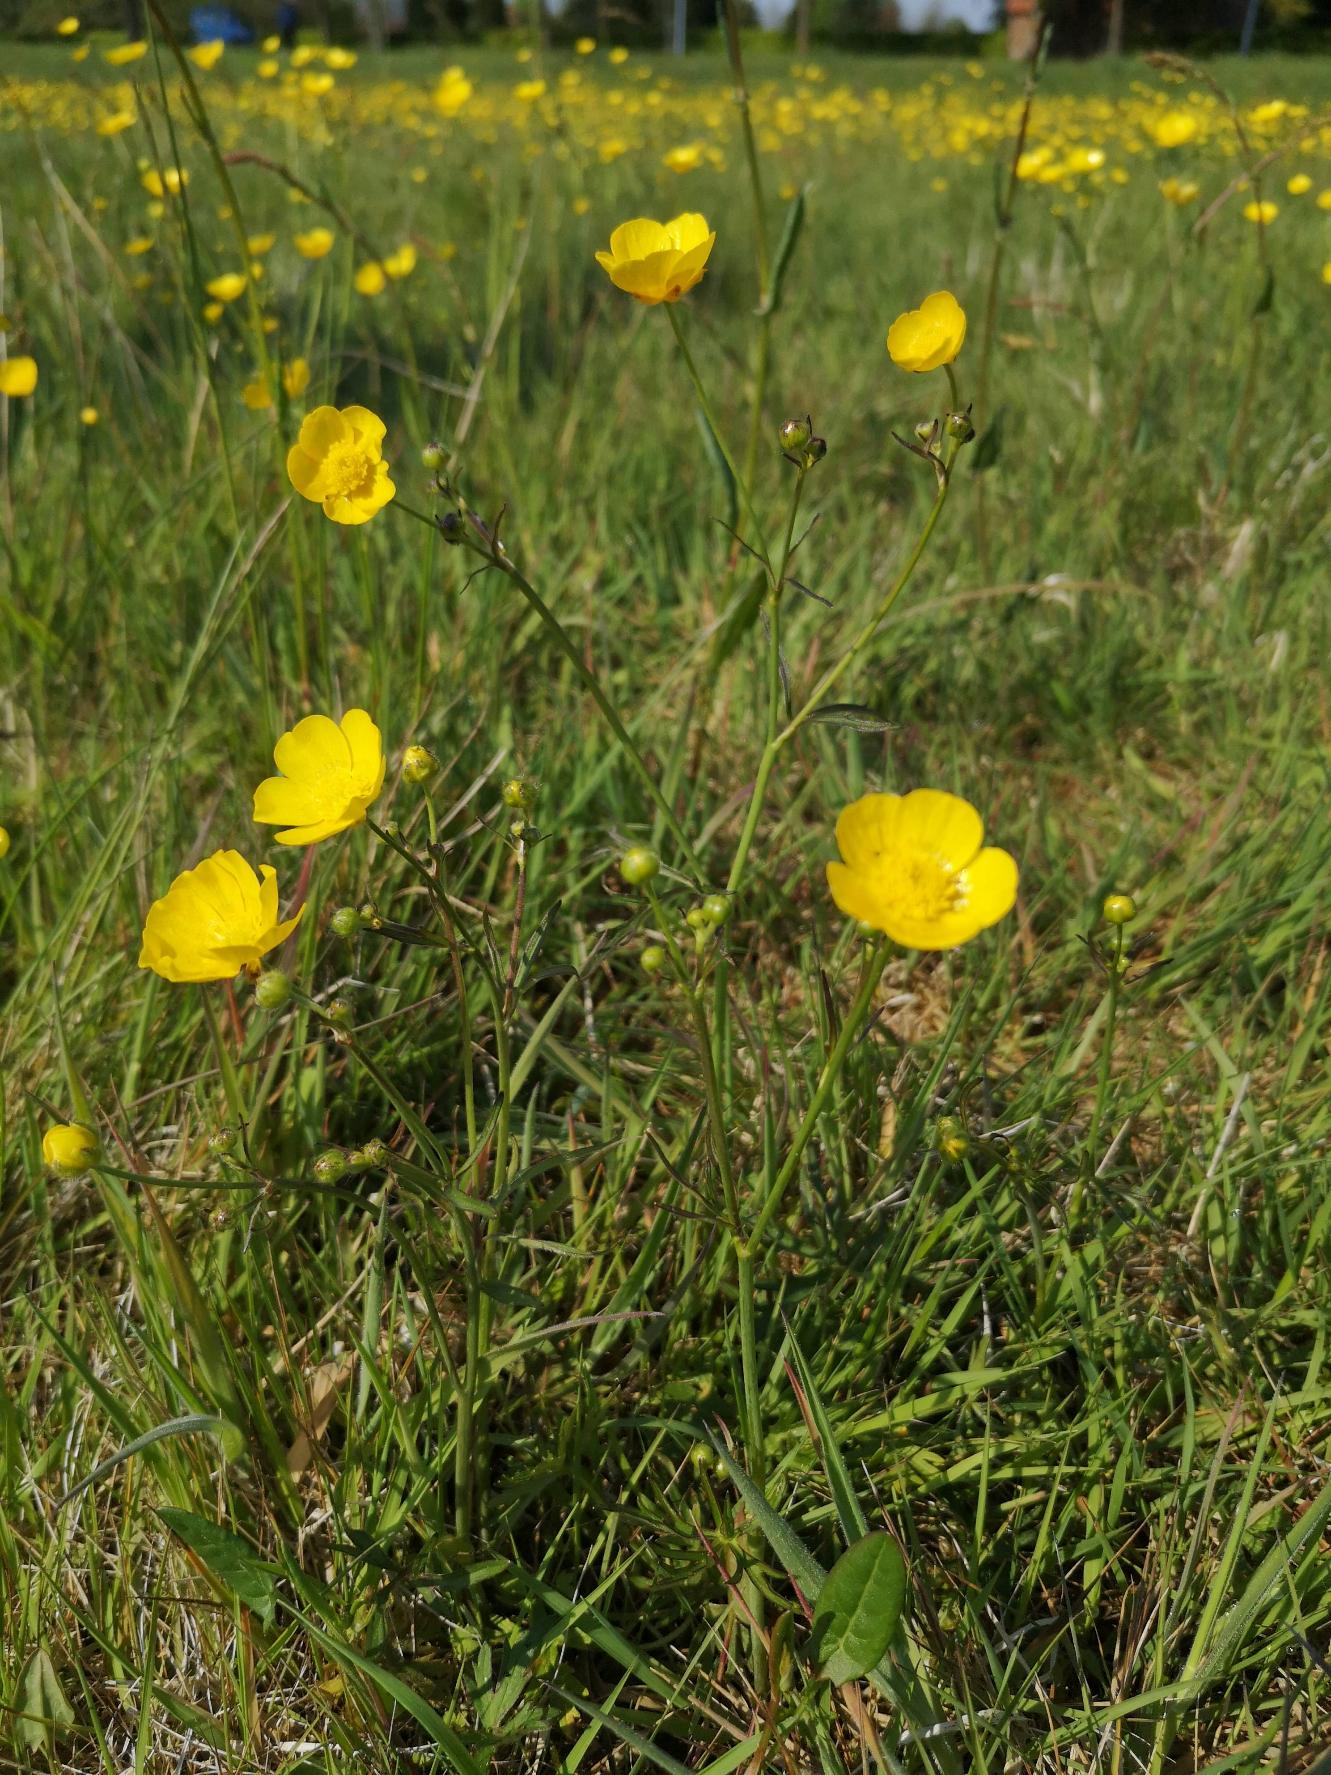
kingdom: Plantae
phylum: Tracheophyta
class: Magnoliopsida
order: Ranunculales
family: Ranunculaceae
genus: Ranunculus
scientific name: Ranunculus acris
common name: Bidende ranunkel
